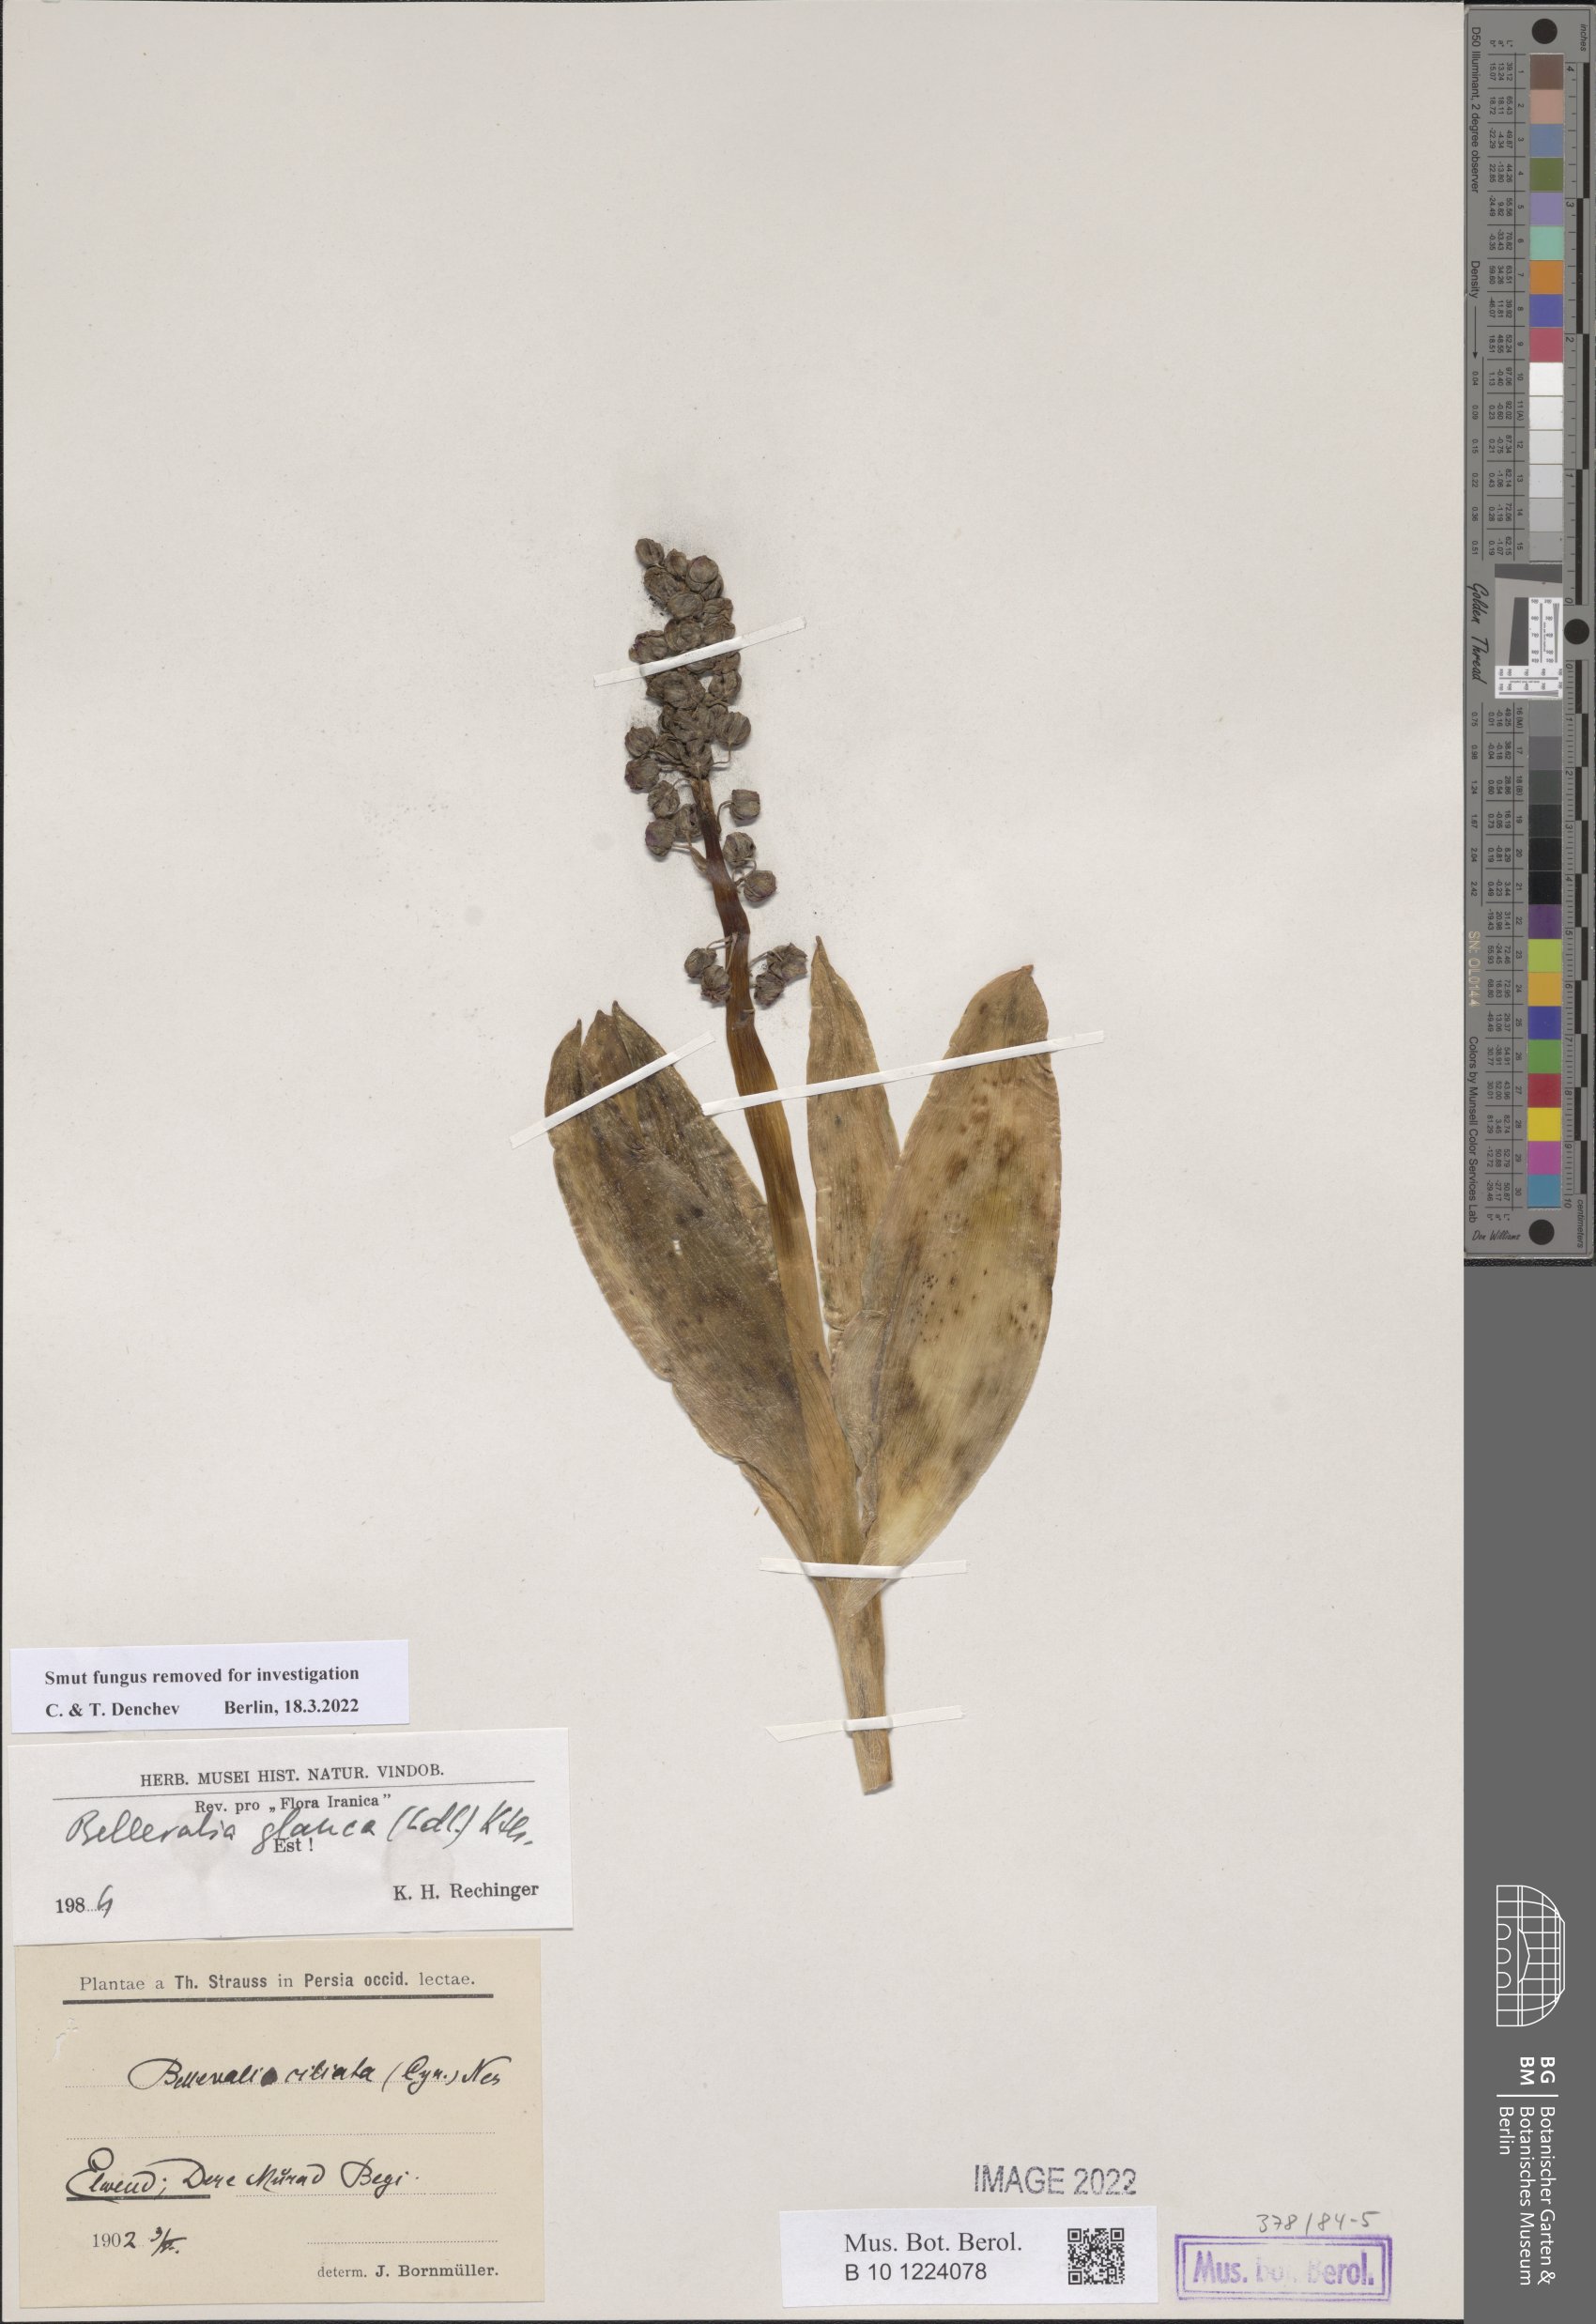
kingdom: Plantae
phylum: Tracheophyta
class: Liliopsida
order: Asparagales
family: Asparagaceae
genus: Bellevalia
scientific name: Bellevalia glauca
